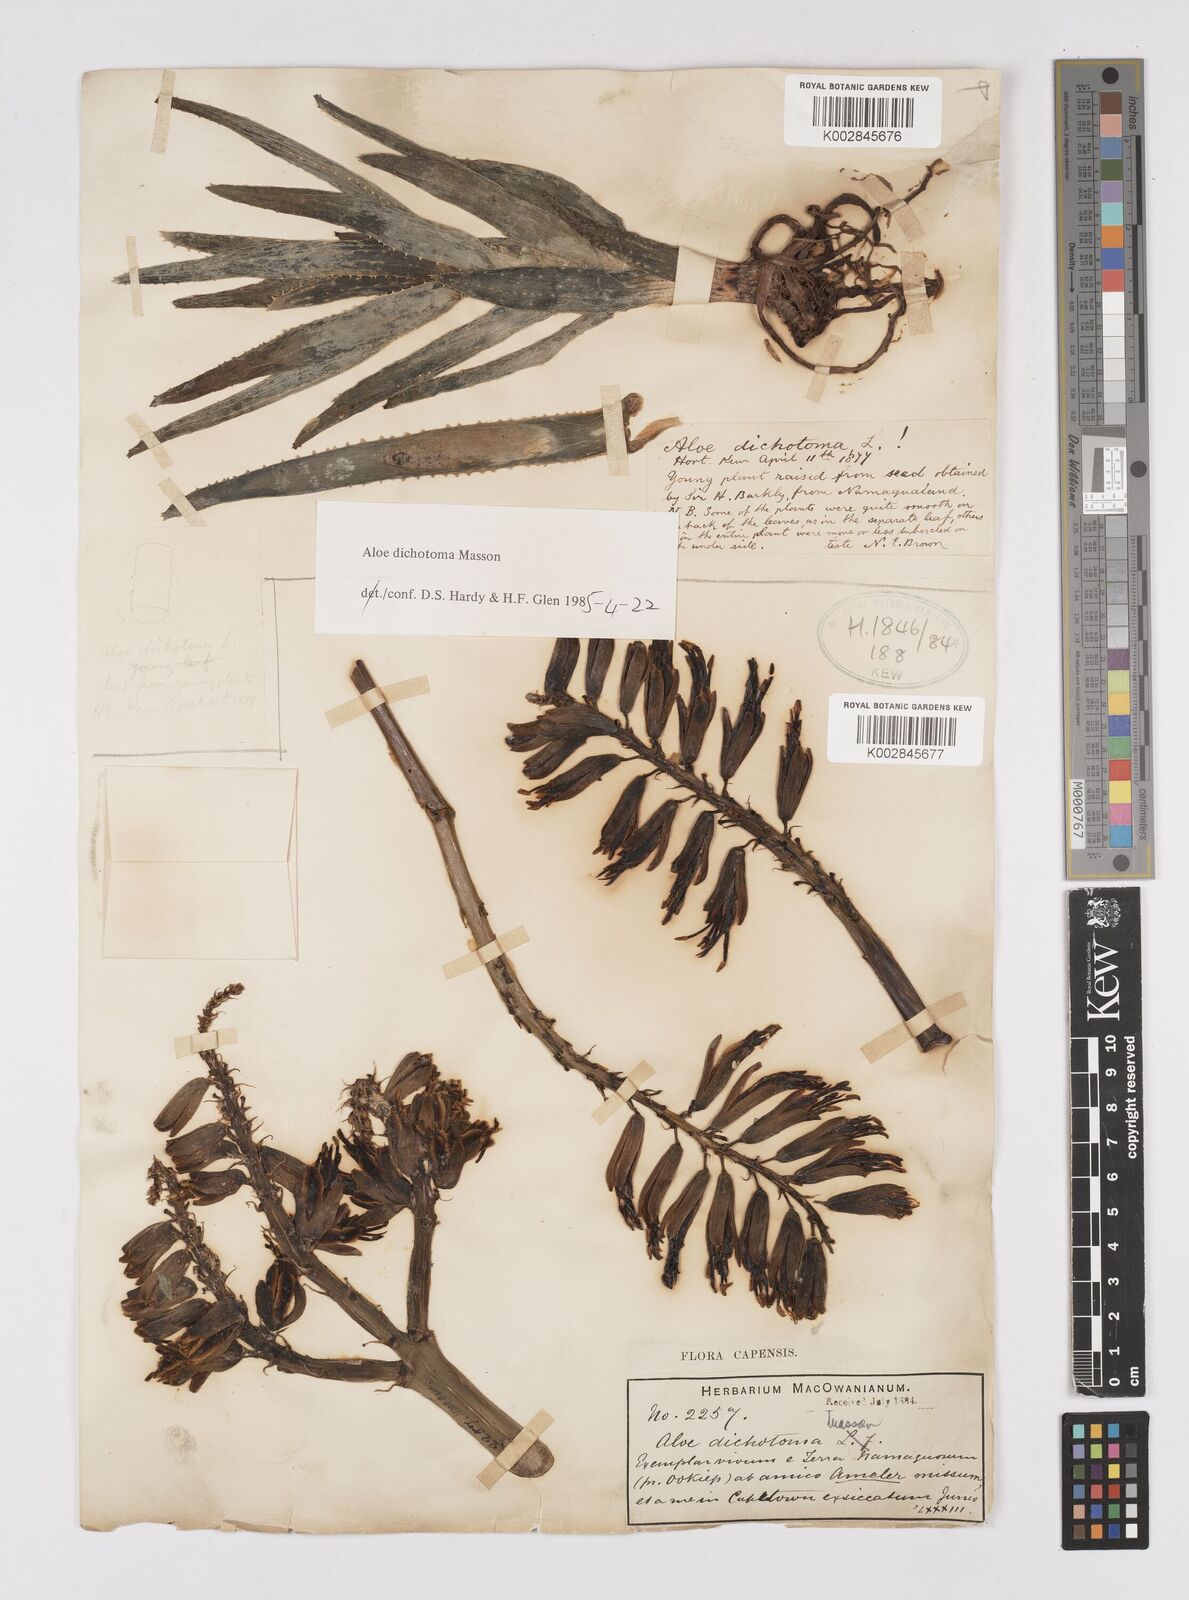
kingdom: Plantae
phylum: Tracheophyta
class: Liliopsida
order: Asparagales
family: Asphodelaceae
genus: Aloidendron
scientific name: Aloidendron dichotomum
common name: Quiver tree
